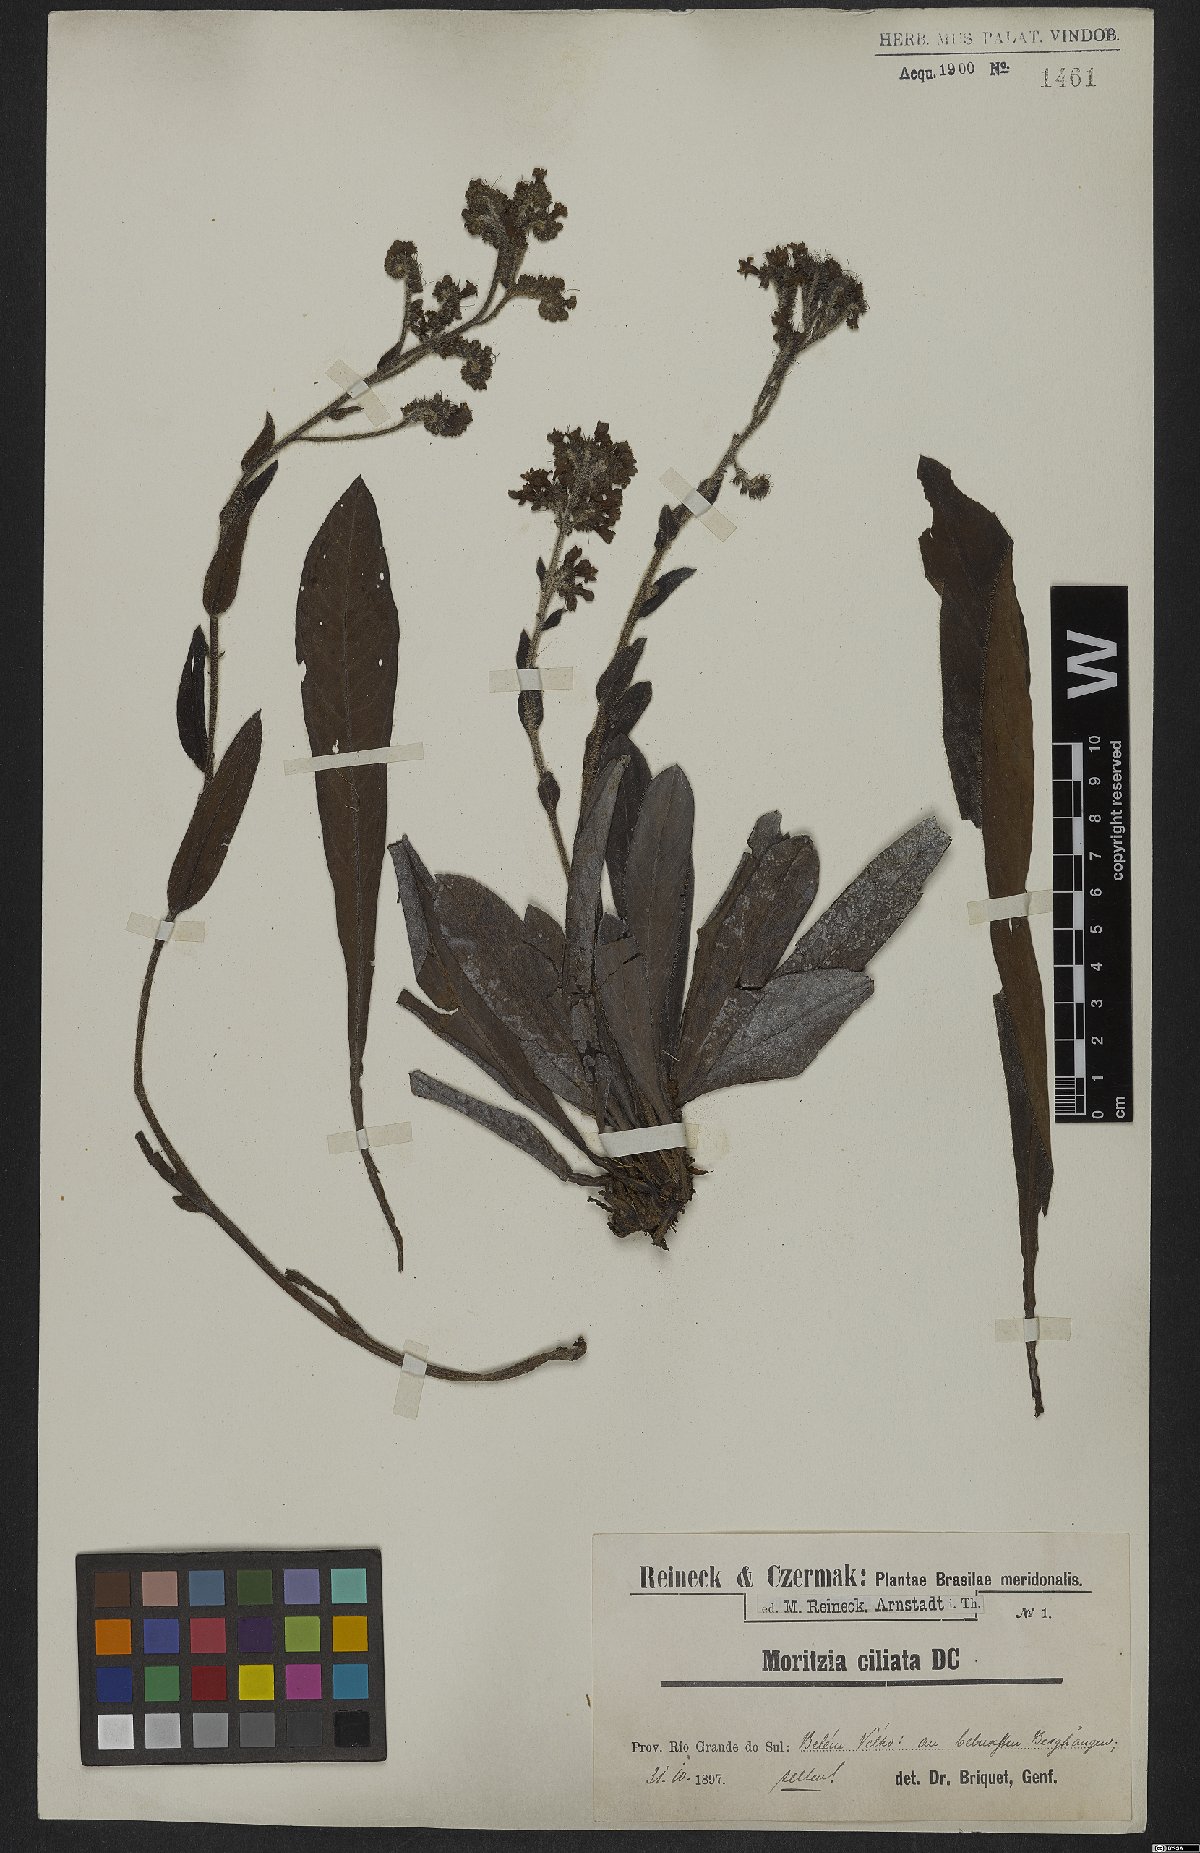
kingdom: Plantae
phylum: Tracheophyta
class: Magnoliopsida
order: Boraginales
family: Boraginaceae
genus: Moritzia
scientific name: Moritzia ciliata
